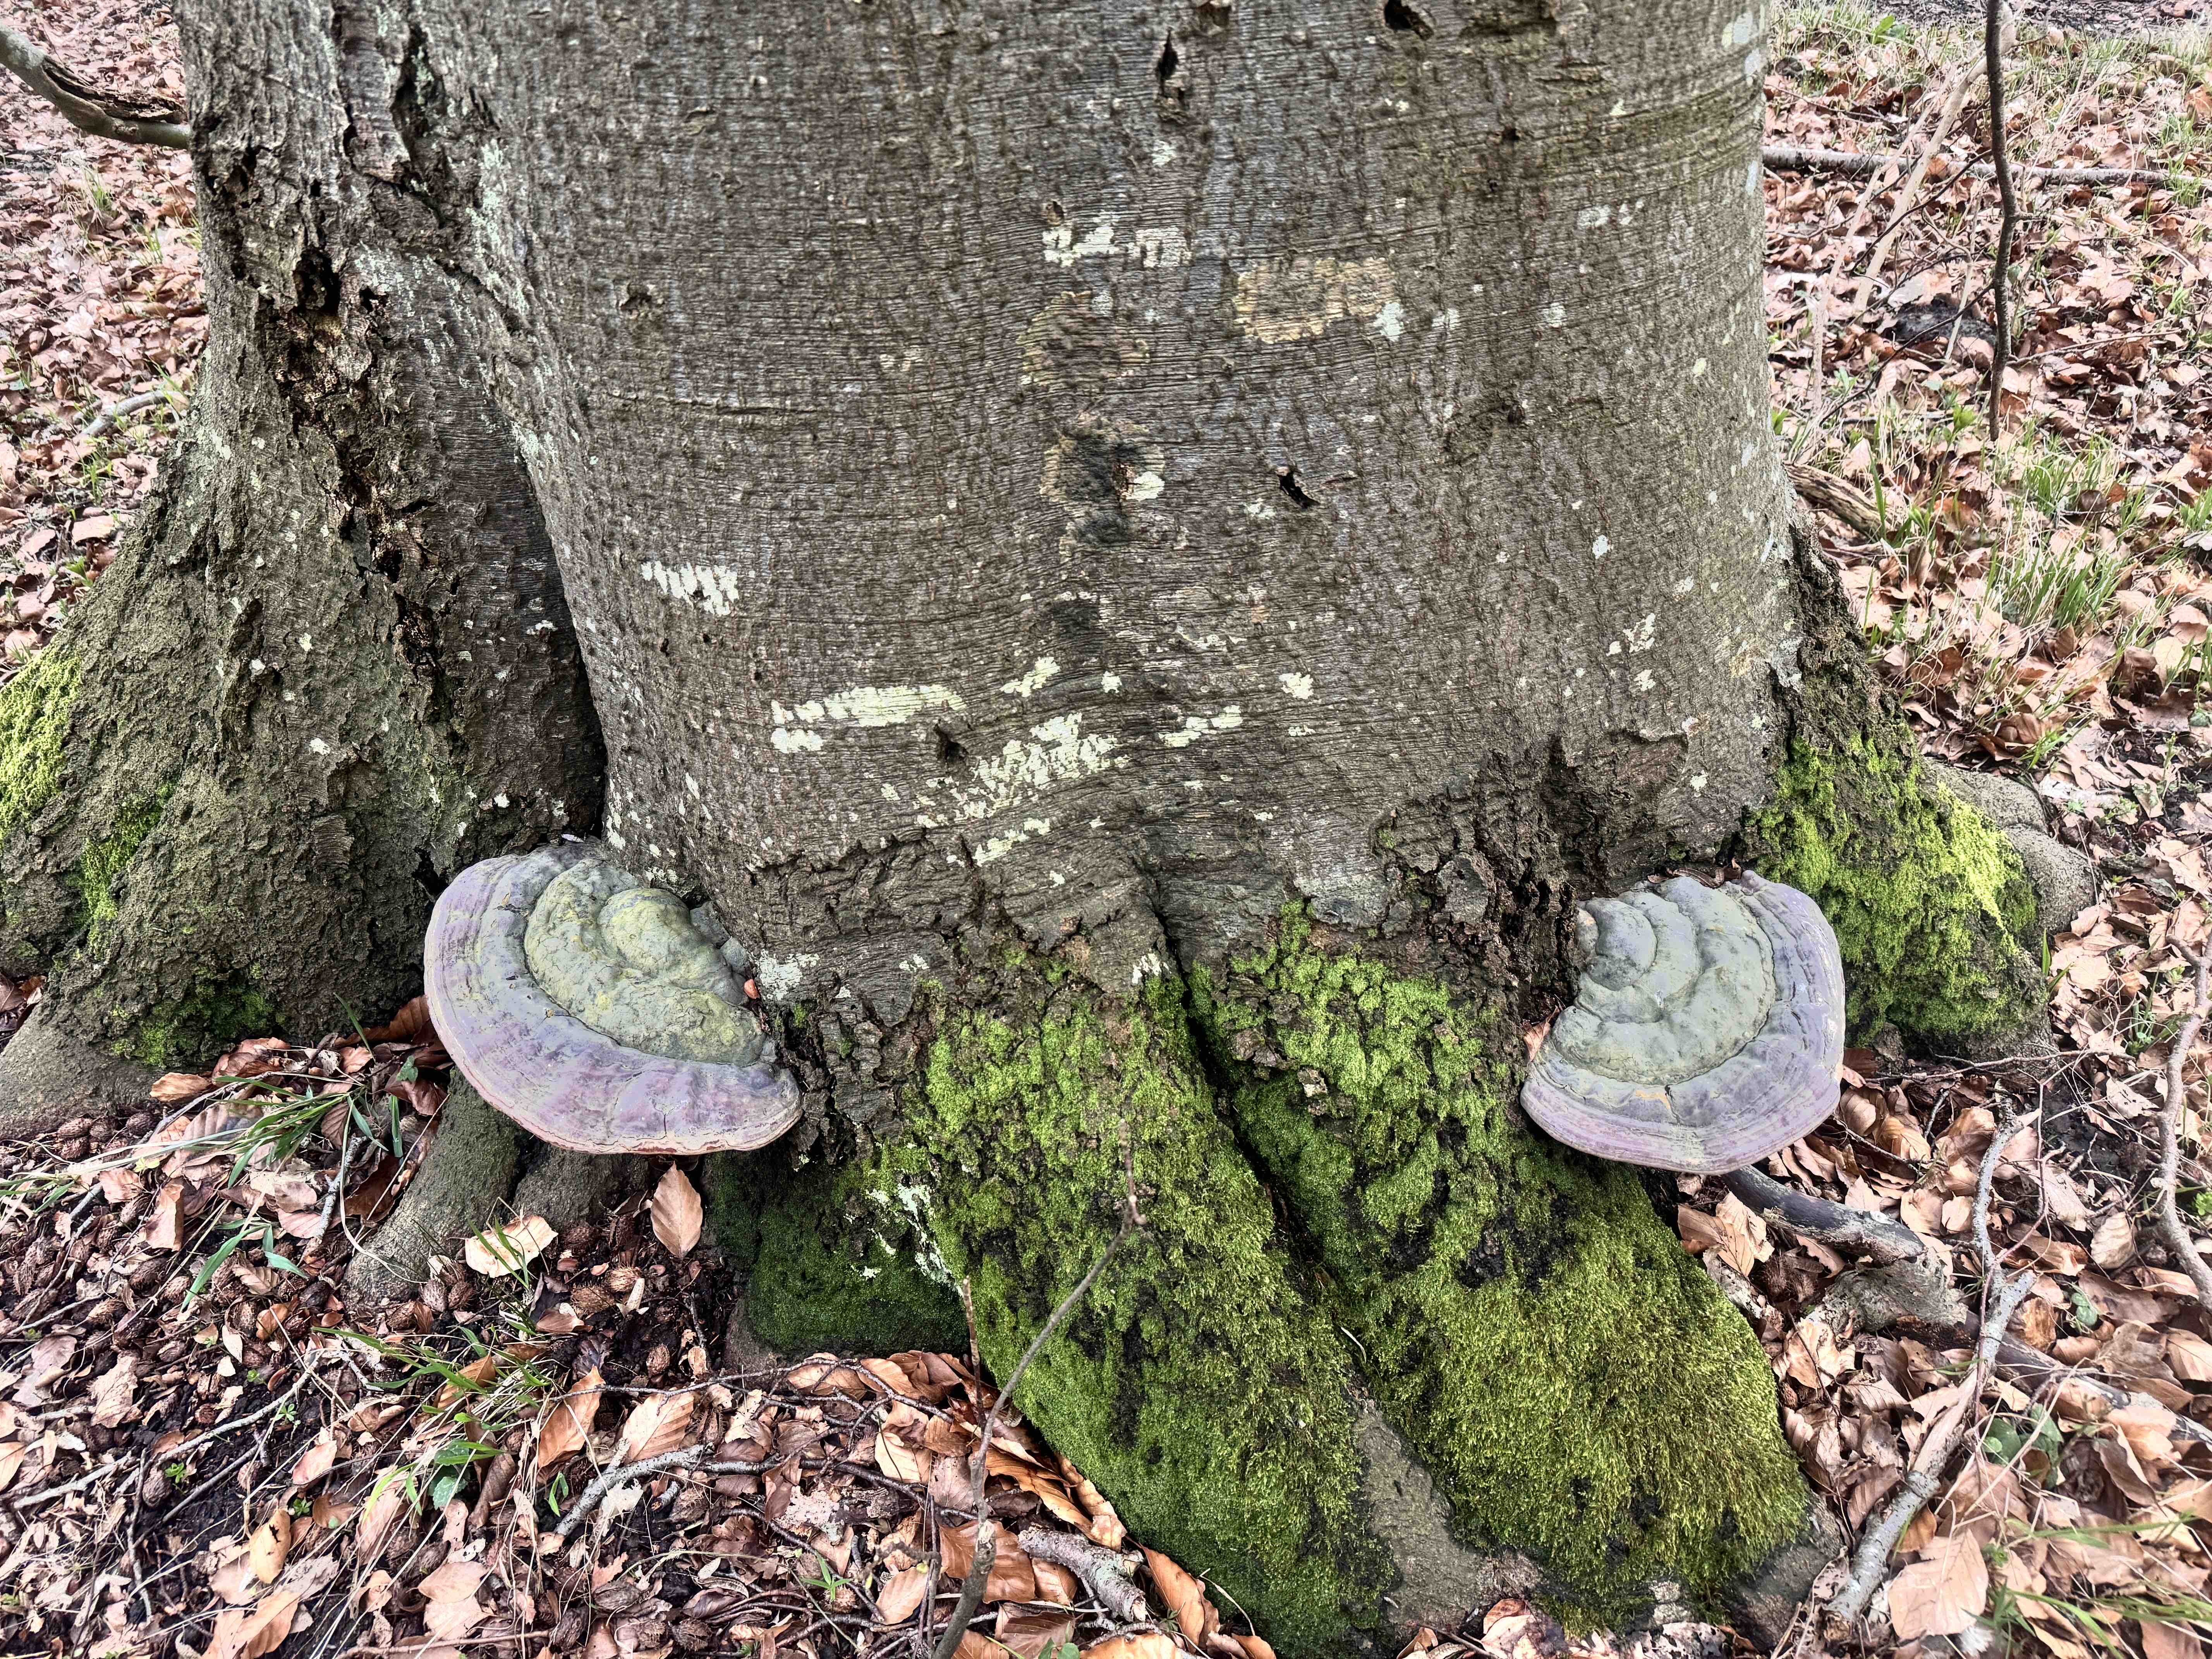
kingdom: Fungi
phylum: Basidiomycota
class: Agaricomycetes
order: Polyporales
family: Polyporaceae
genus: Ganoderma
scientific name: Ganoderma pfeifferi
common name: kobberrød lakporesvamp
